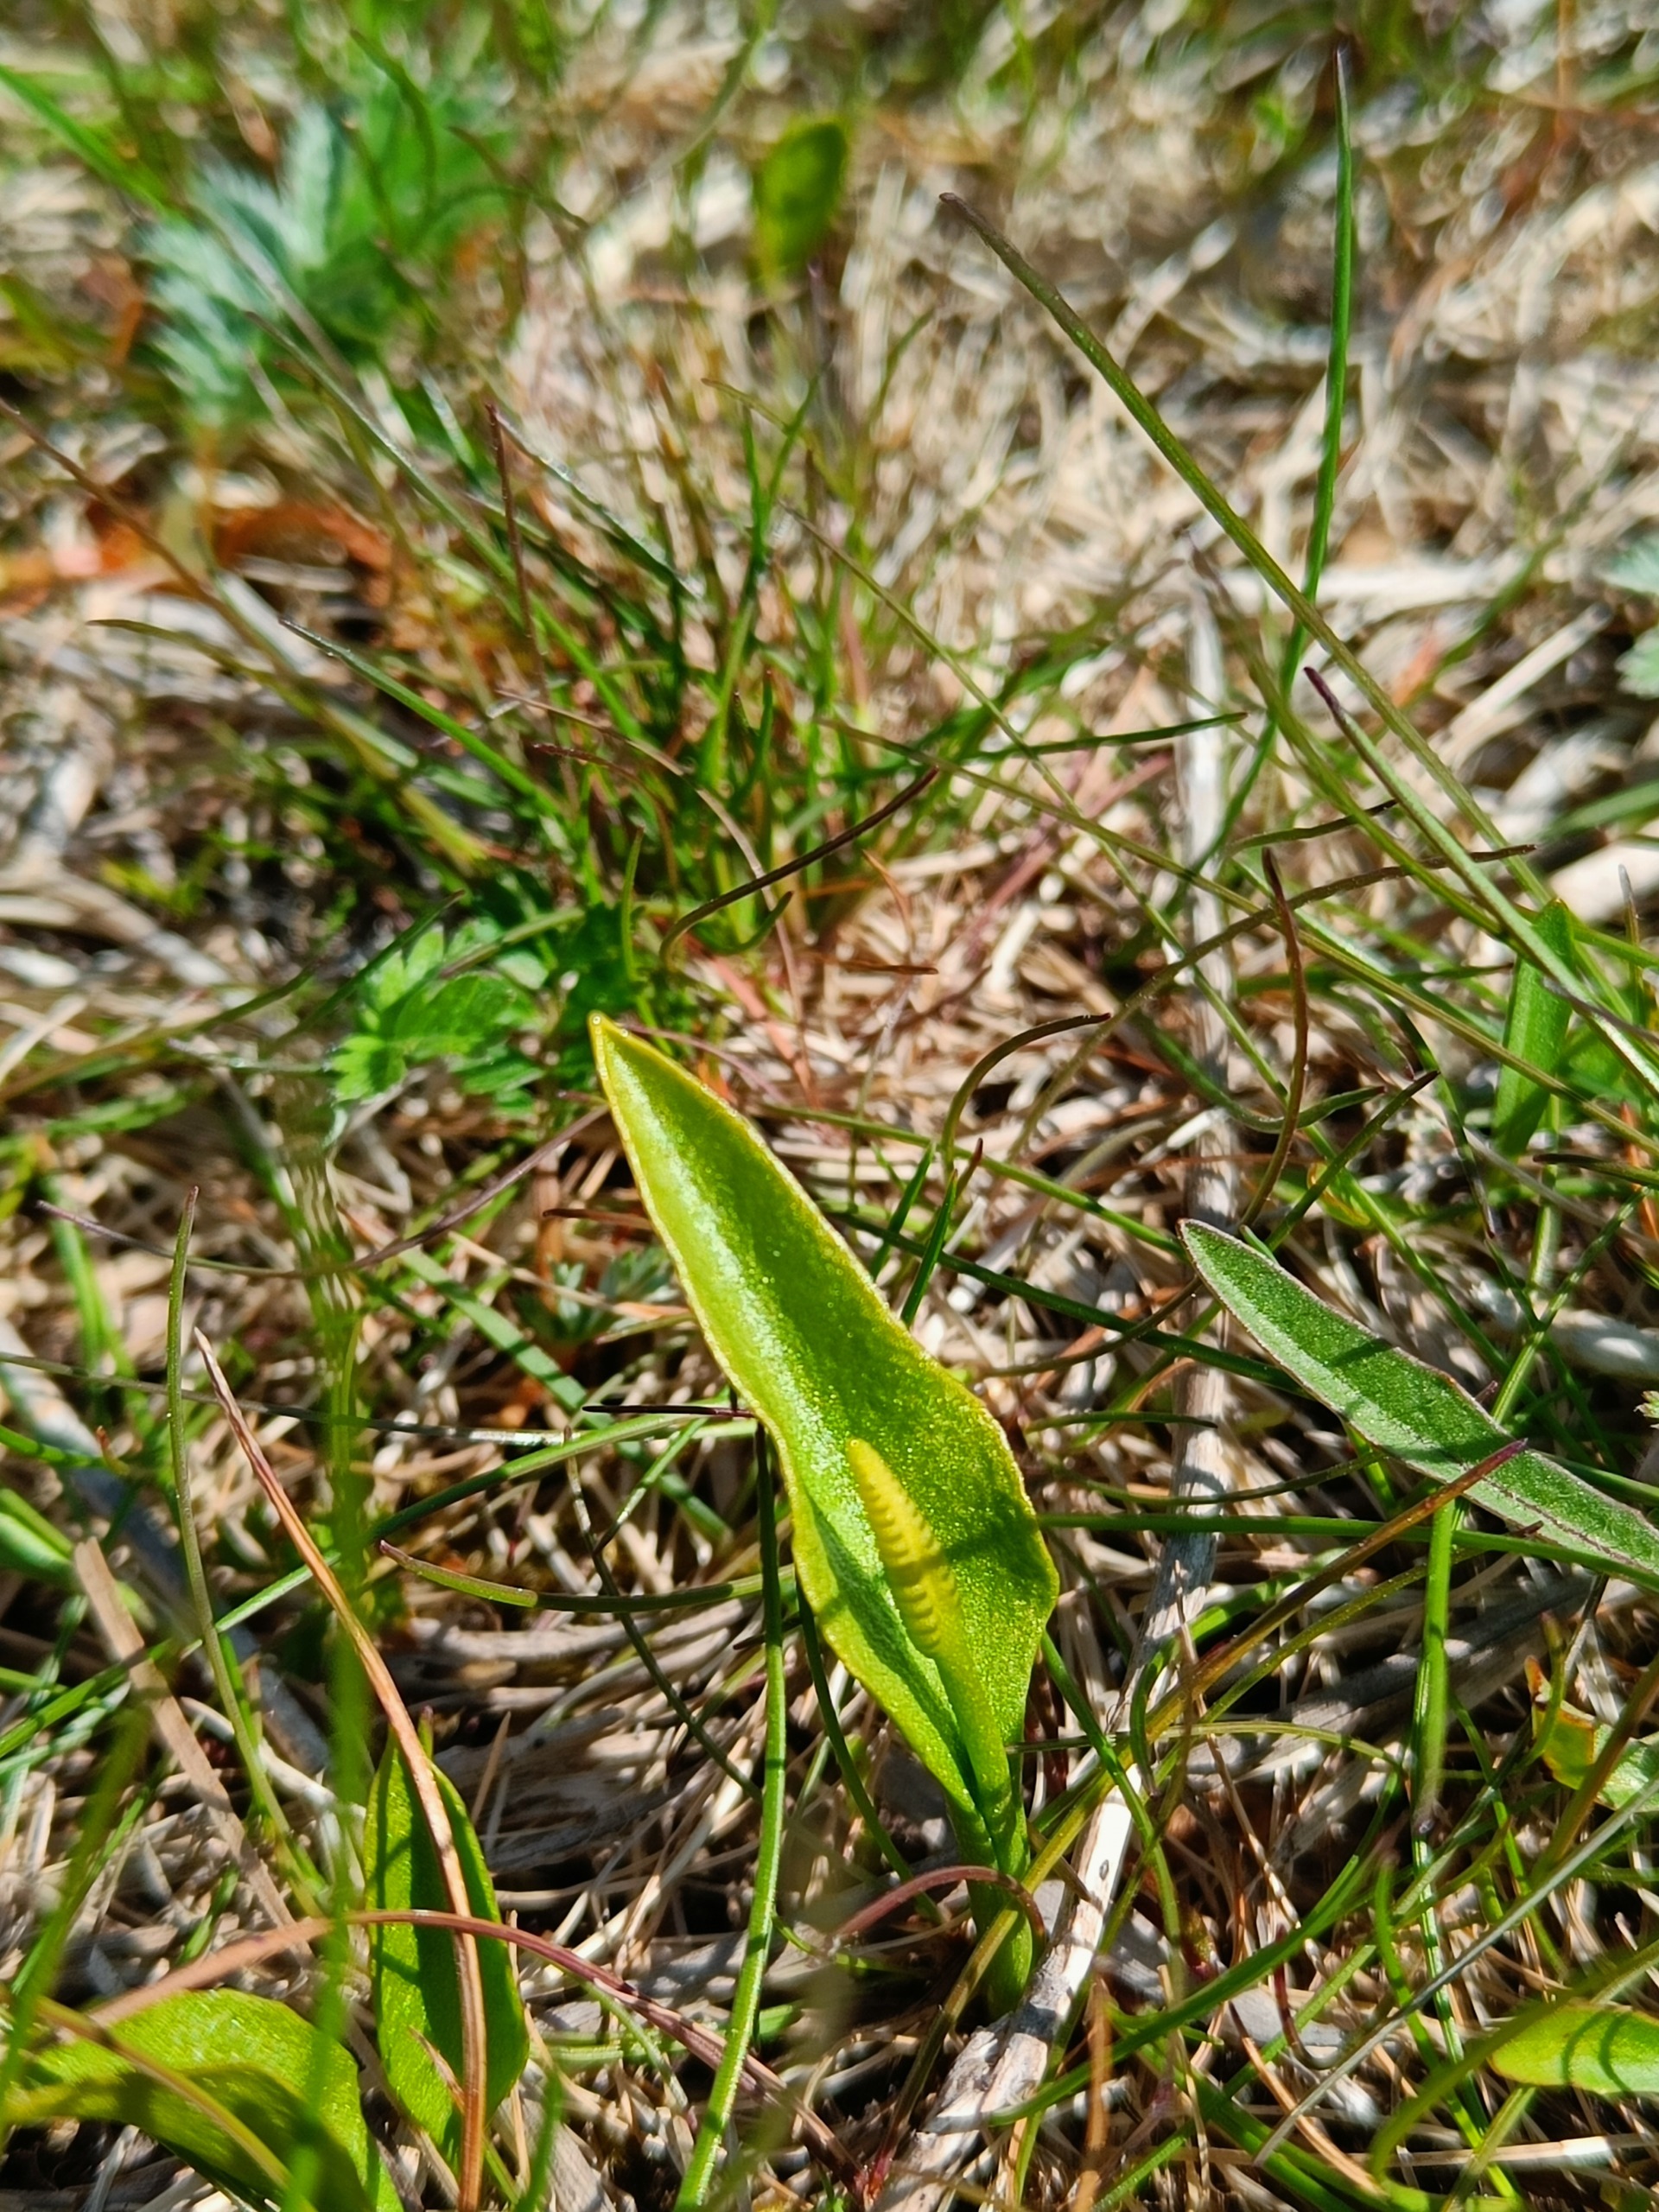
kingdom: Plantae
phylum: Tracheophyta
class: Polypodiopsida
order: Ophioglossales
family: Ophioglossaceae
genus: Ophioglossum
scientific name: Ophioglossum vulgatum
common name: Slangetunge
